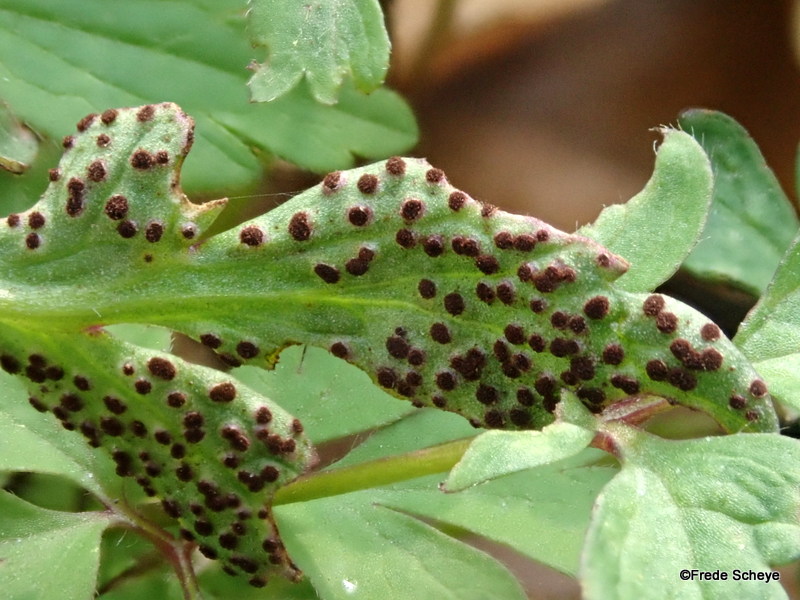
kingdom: Fungi
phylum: Basidiomycota
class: Pucciniomycetes
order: Pucciniales
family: Tranzscheliaceae
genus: Tranzschelia
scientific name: Tranzschelia anemones
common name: anemone-knæksporerust
